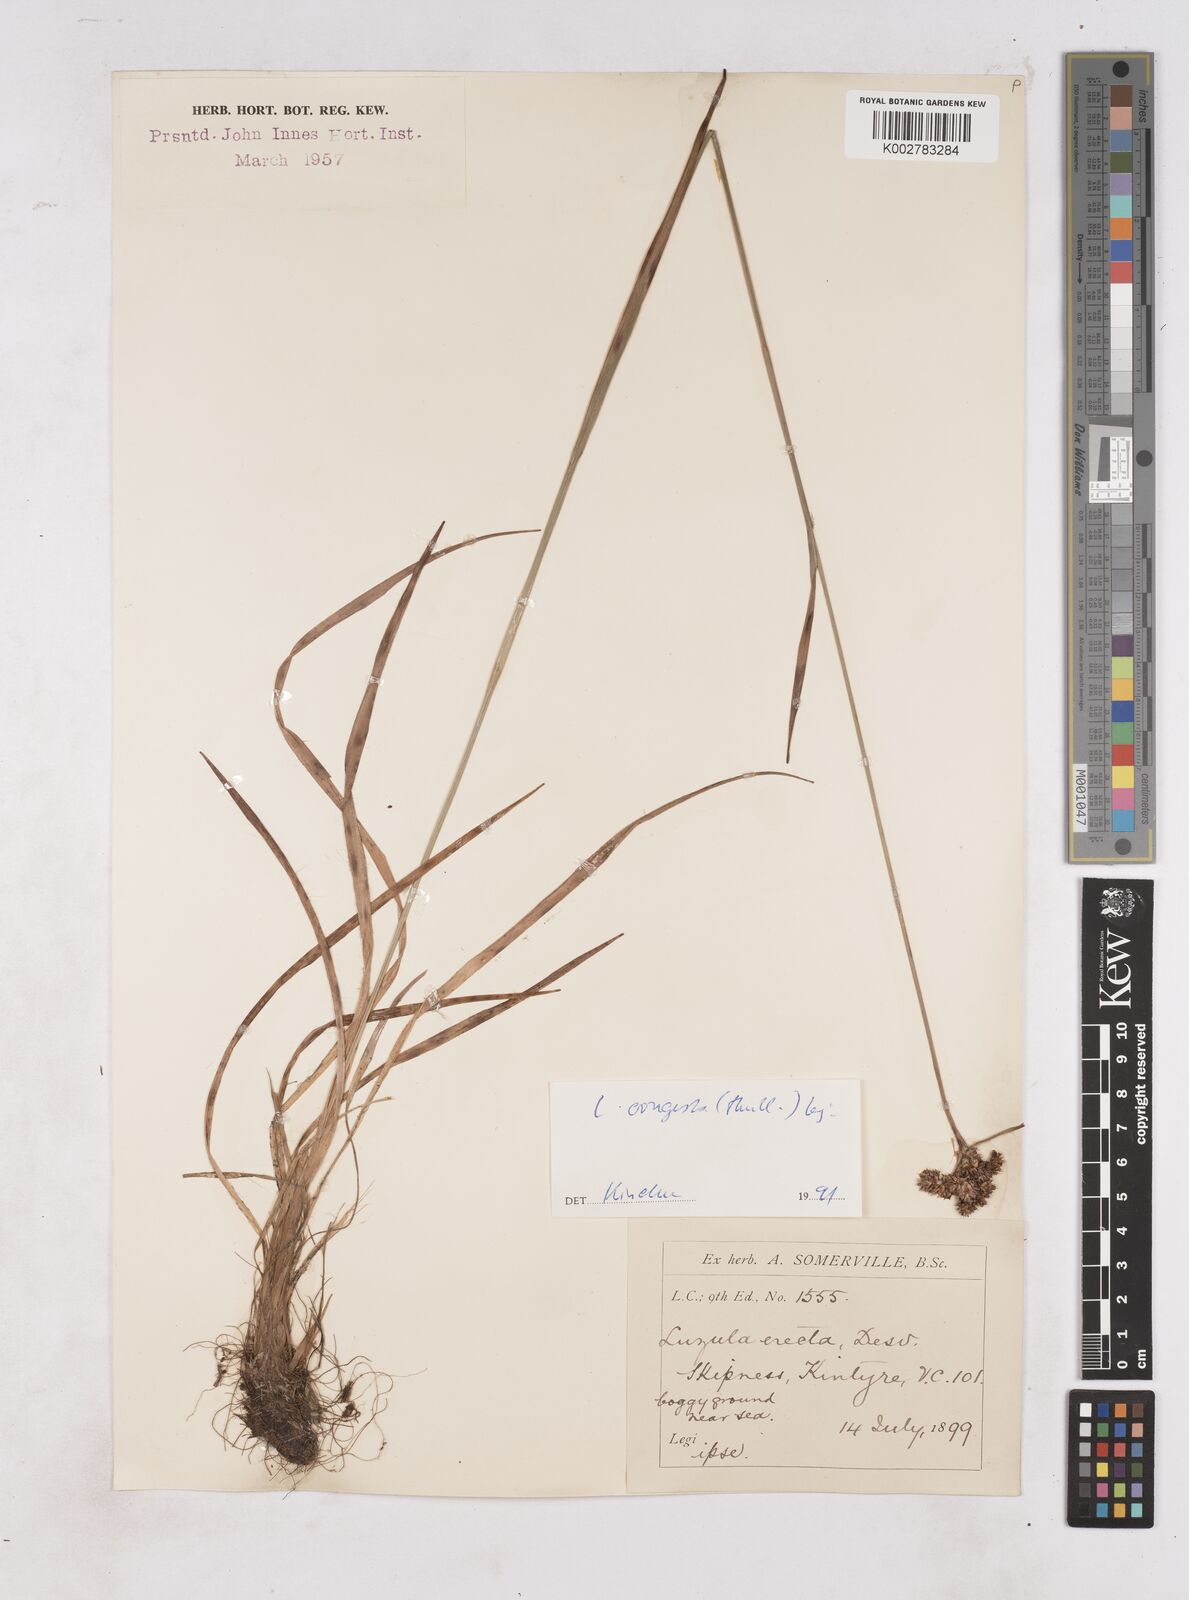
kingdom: Plantae
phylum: Tracheophyta
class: Liliopsida
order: Poales
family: Juncaceae
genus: Luzula
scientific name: Luzula multiflora
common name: Heath wood-rush
